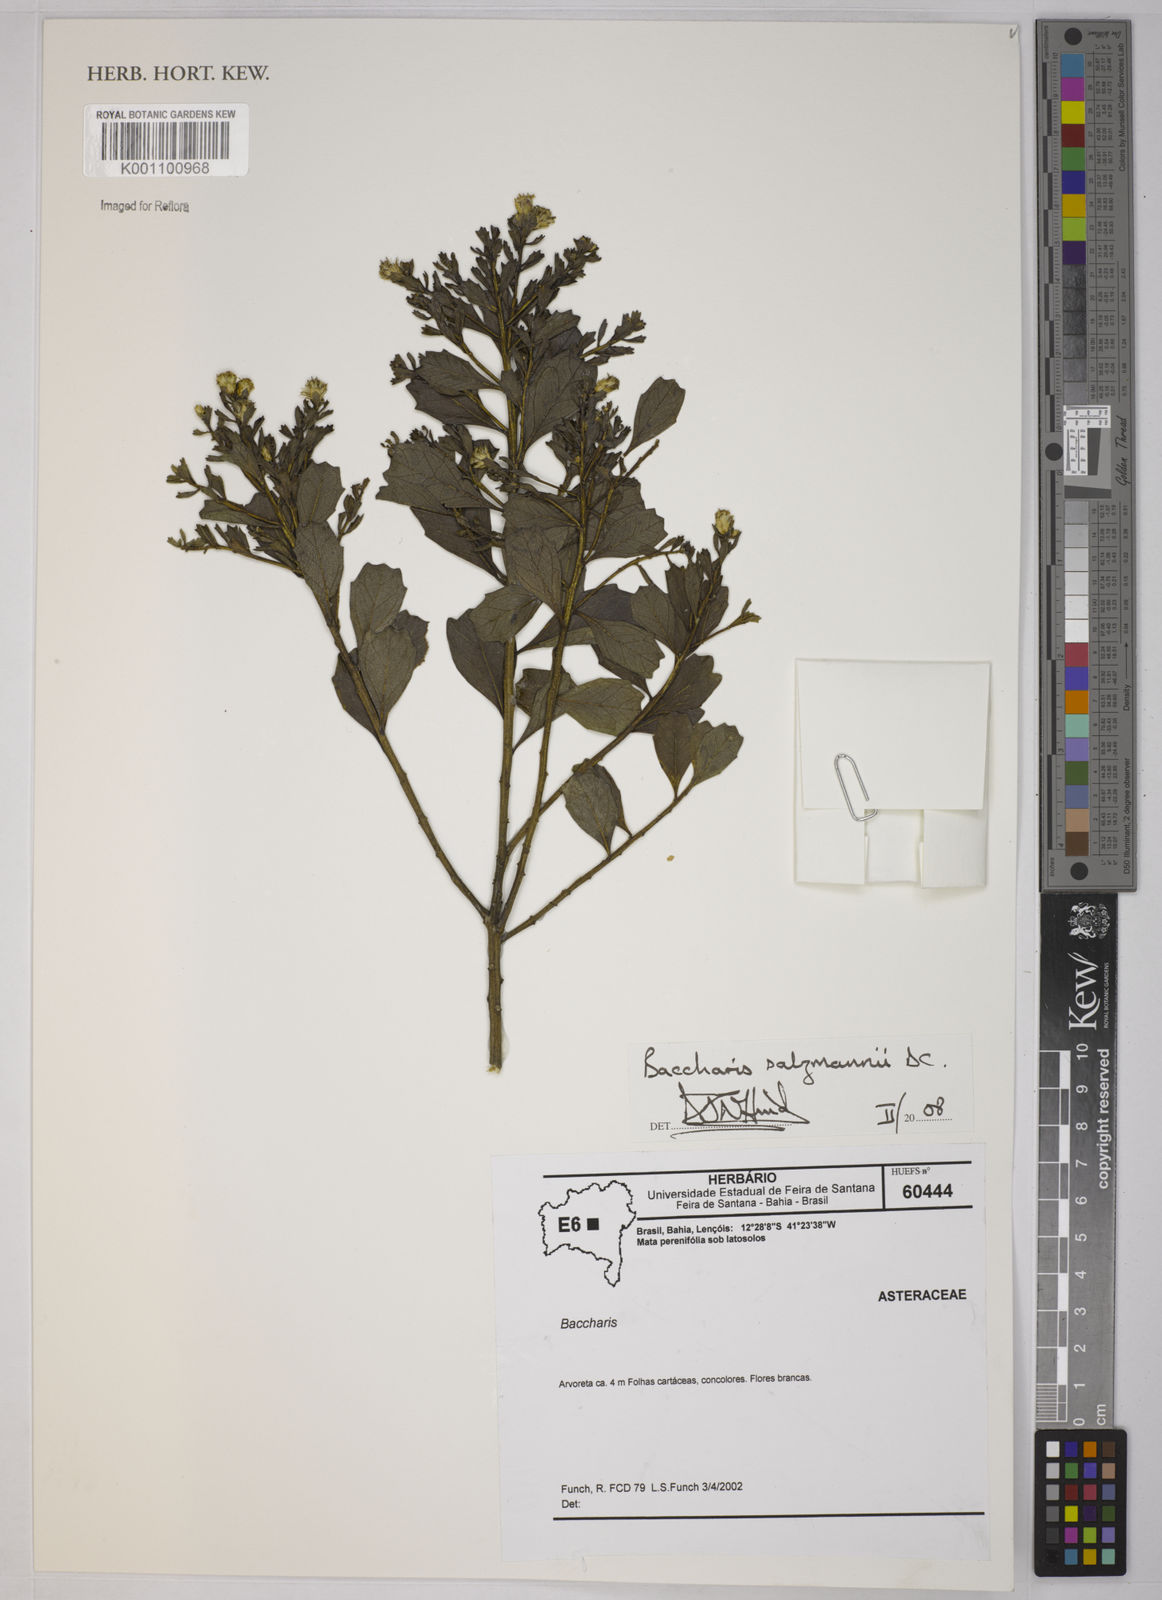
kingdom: Plantae
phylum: Tracheophyta
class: Magnoliopsida
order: Asterales
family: Asteraceae
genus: Baccharis
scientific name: Baccharis retusa
